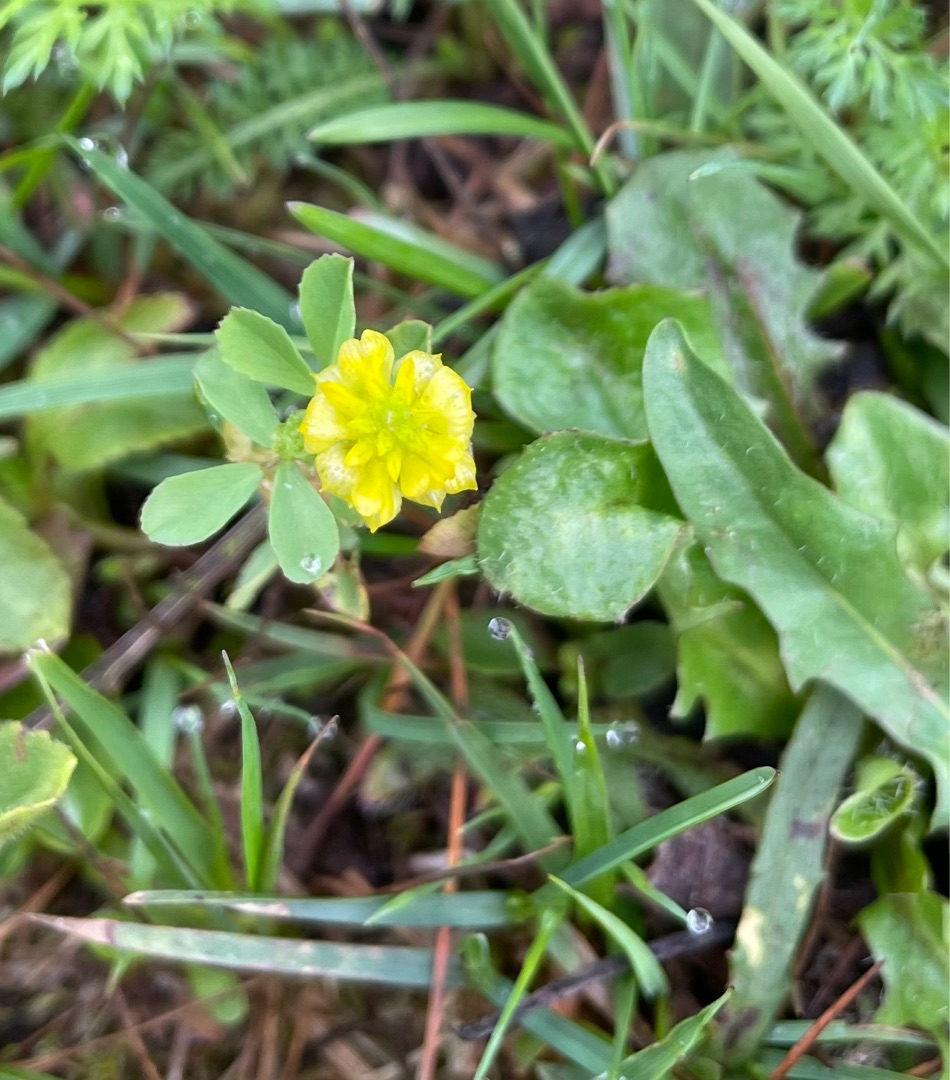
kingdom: Plantae
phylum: Tracheophyta
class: Magnoliopsida
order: Fabales
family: Fabaceae
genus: Trifolium
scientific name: Trifolium campestre
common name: Gul kløver
